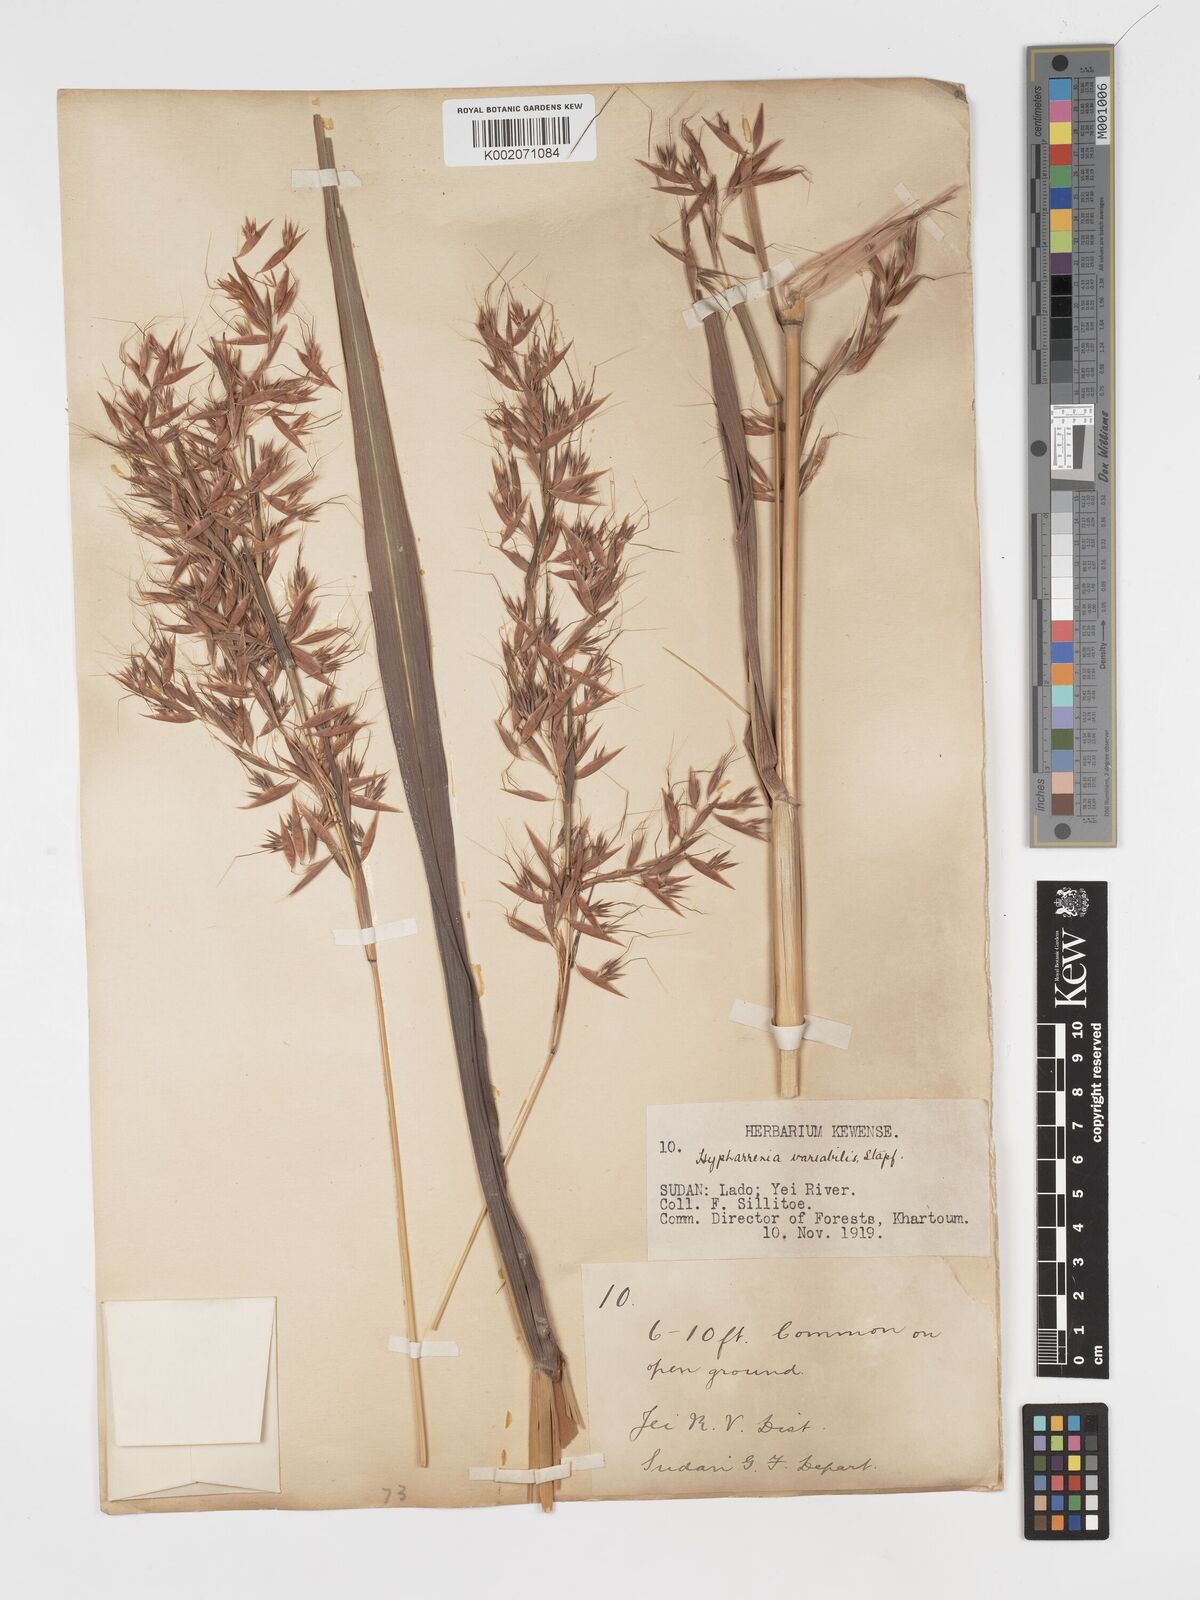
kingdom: Plantae
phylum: Tracheophyta
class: Liliopsida
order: Poales
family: Poaceae
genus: Hyparrhenia
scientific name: Hyparrhenia variabilis
